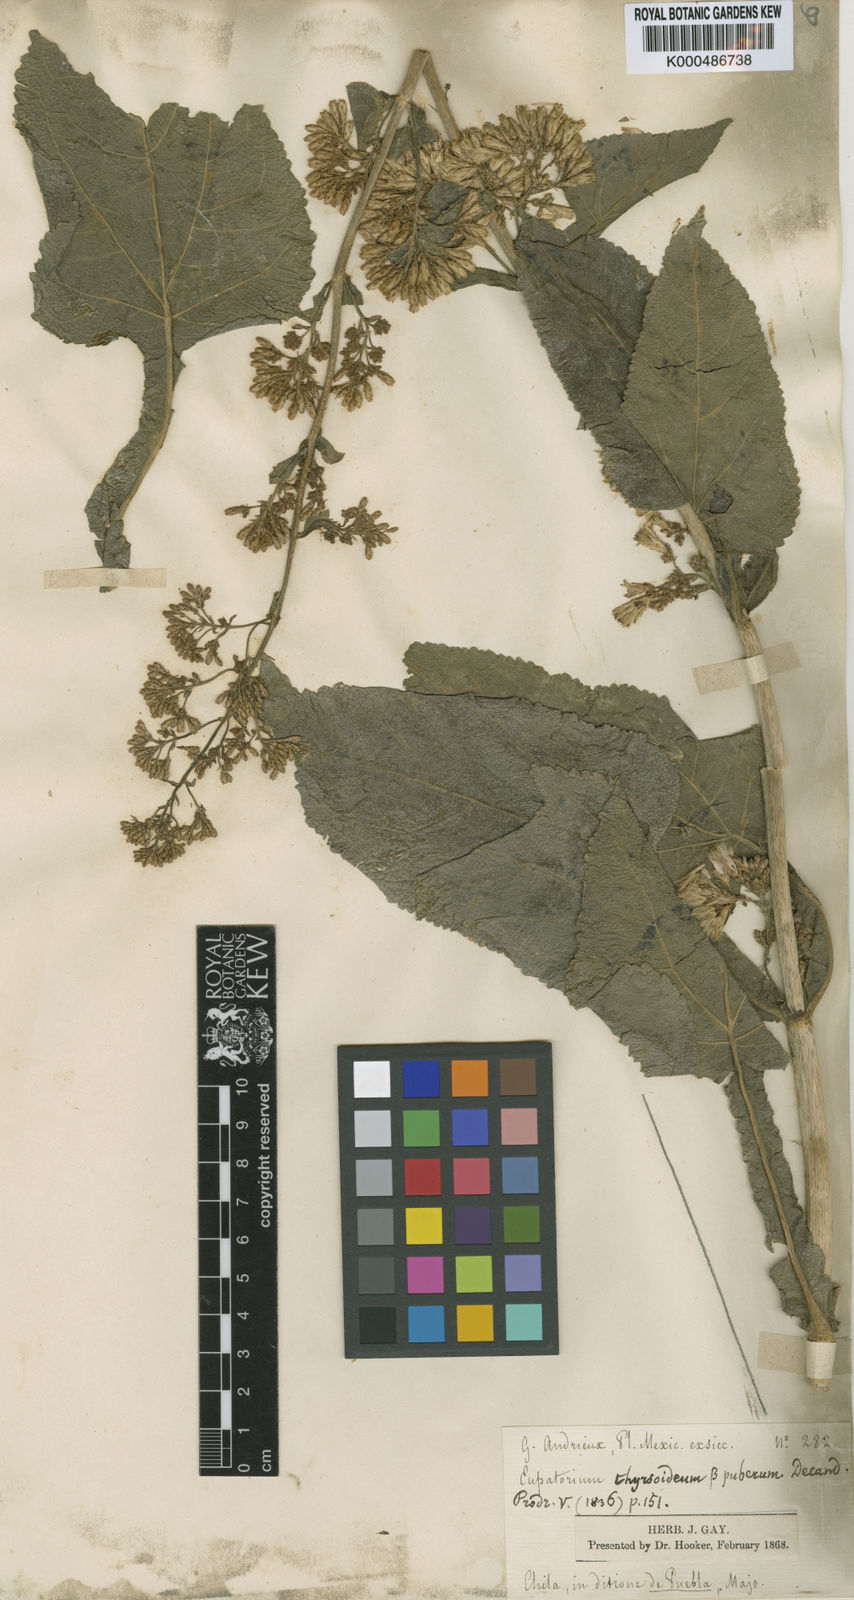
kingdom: Plantae
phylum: Tracheophyta
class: Magnoliopsida
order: Asterales
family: Asteraceae
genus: Critonia
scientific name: Critonia quadrangularis
